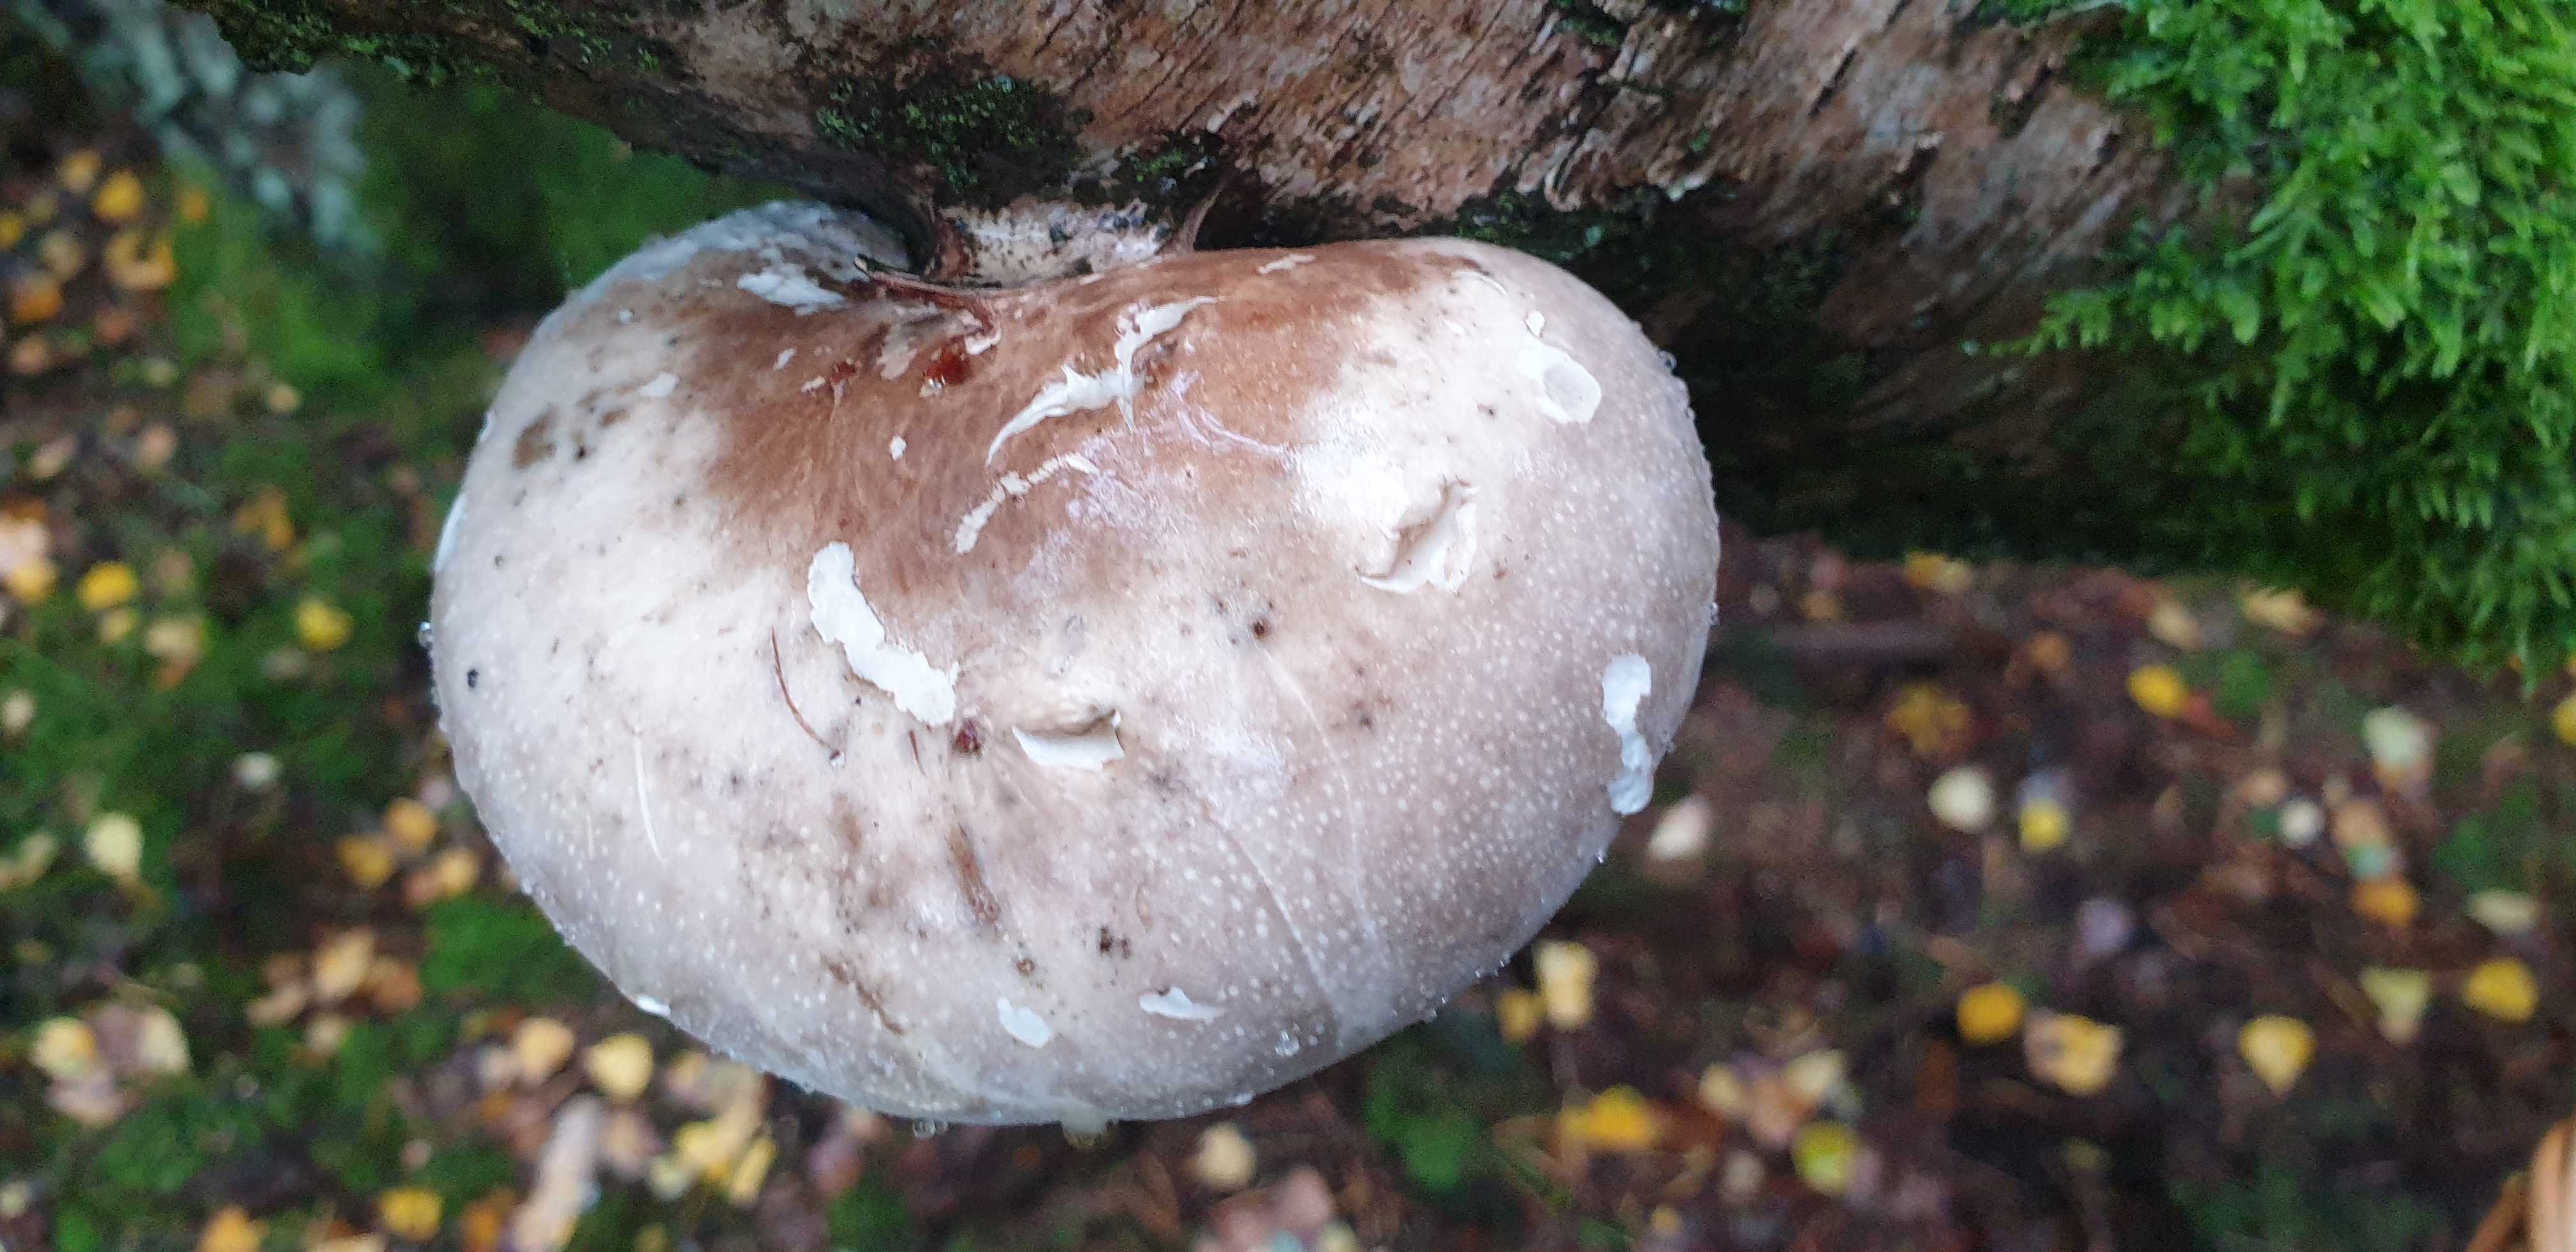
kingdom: Fungi
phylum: Basidiomycota
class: Agaricomycetes
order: Polyporales
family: Fomitopsidaceae
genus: Fomitopsis
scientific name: Fomitopsis betulina
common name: birkeporesvamp
